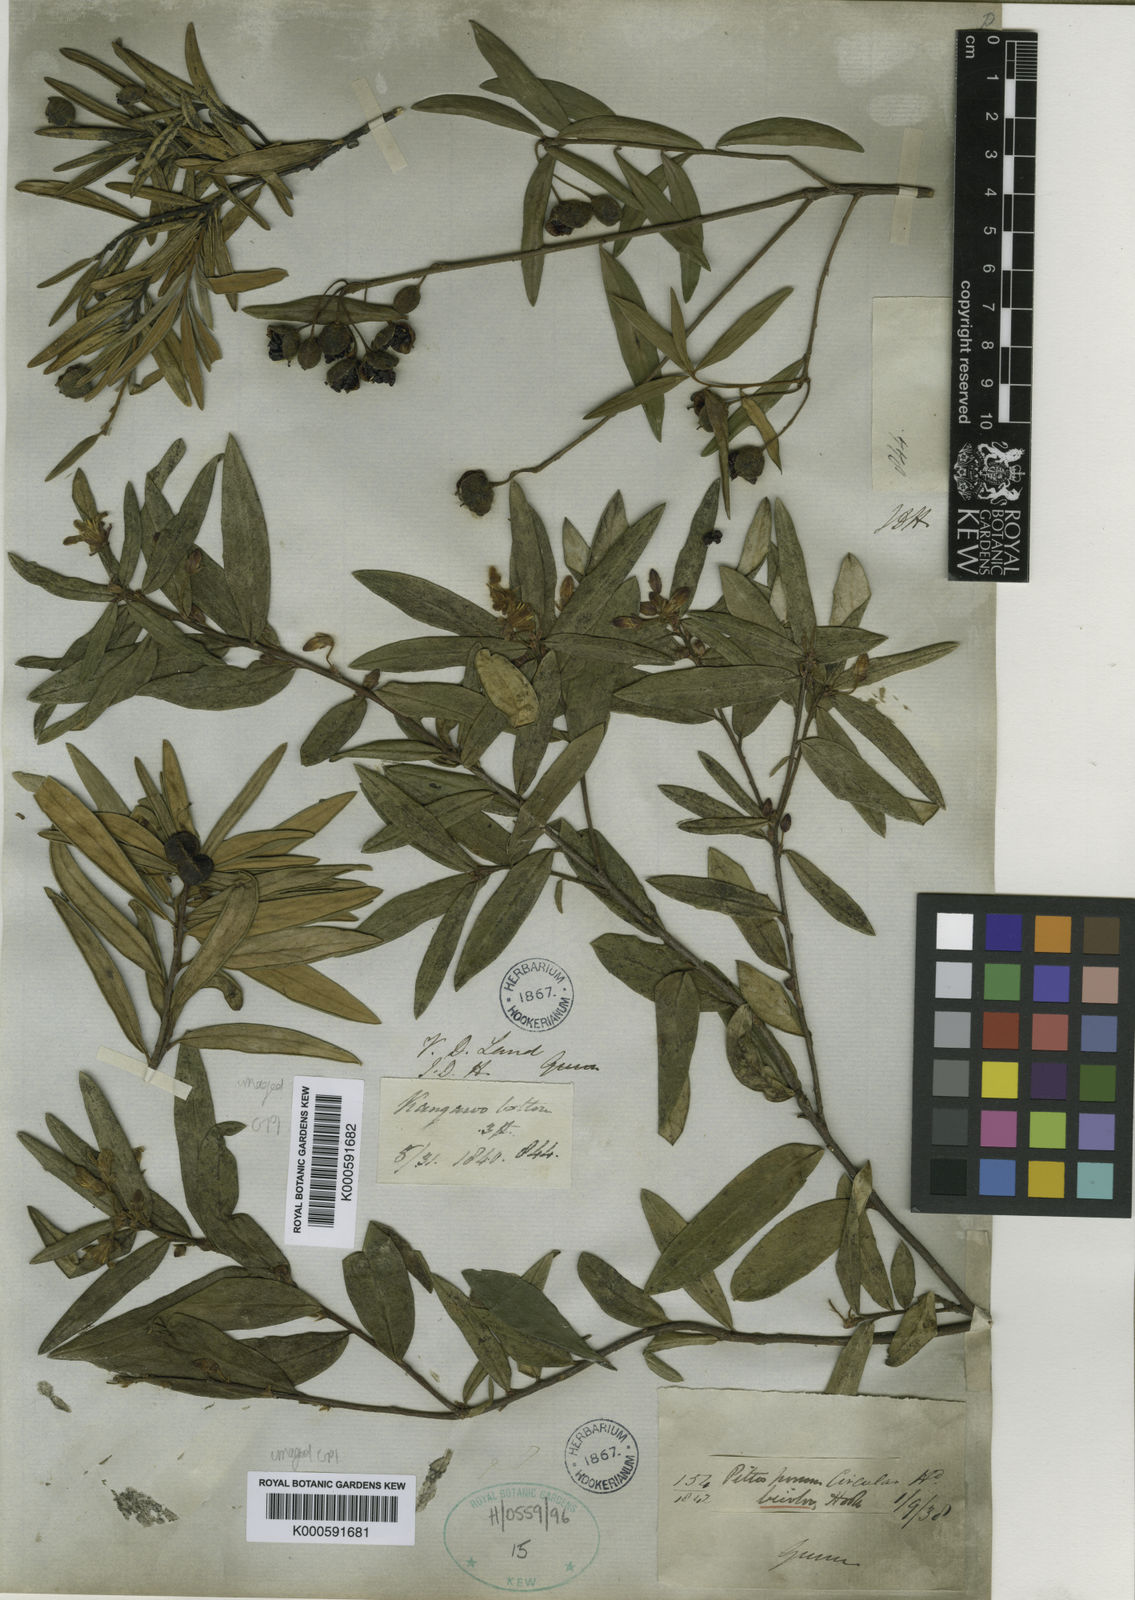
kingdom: Plantae
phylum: Tracheophyta
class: Magnoliopsida
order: Apiales
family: Pittosporaceae
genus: Pittosporum
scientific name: Pittosporum bicolor
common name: Tallowwood
